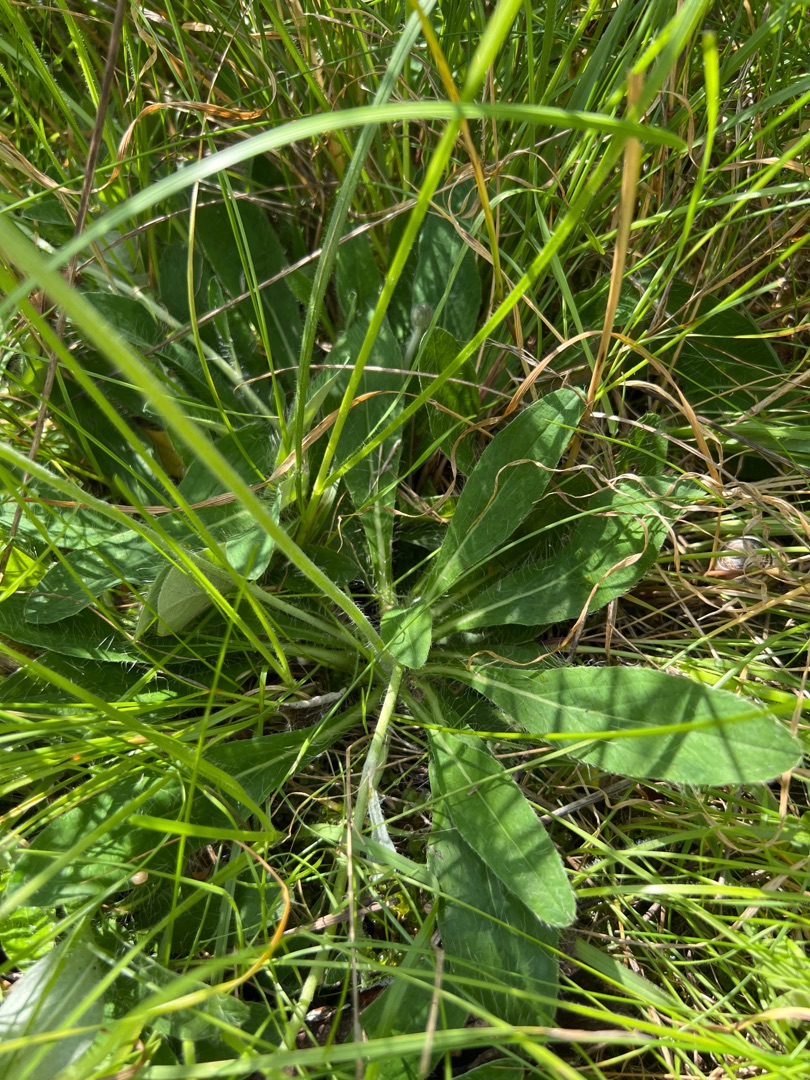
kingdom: Plantae
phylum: Tracheophyta
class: Magnoliopsida
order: Asterales
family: Asteraceae
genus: Pilosella
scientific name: Pilosella officinarum
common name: Håret høgeurt
